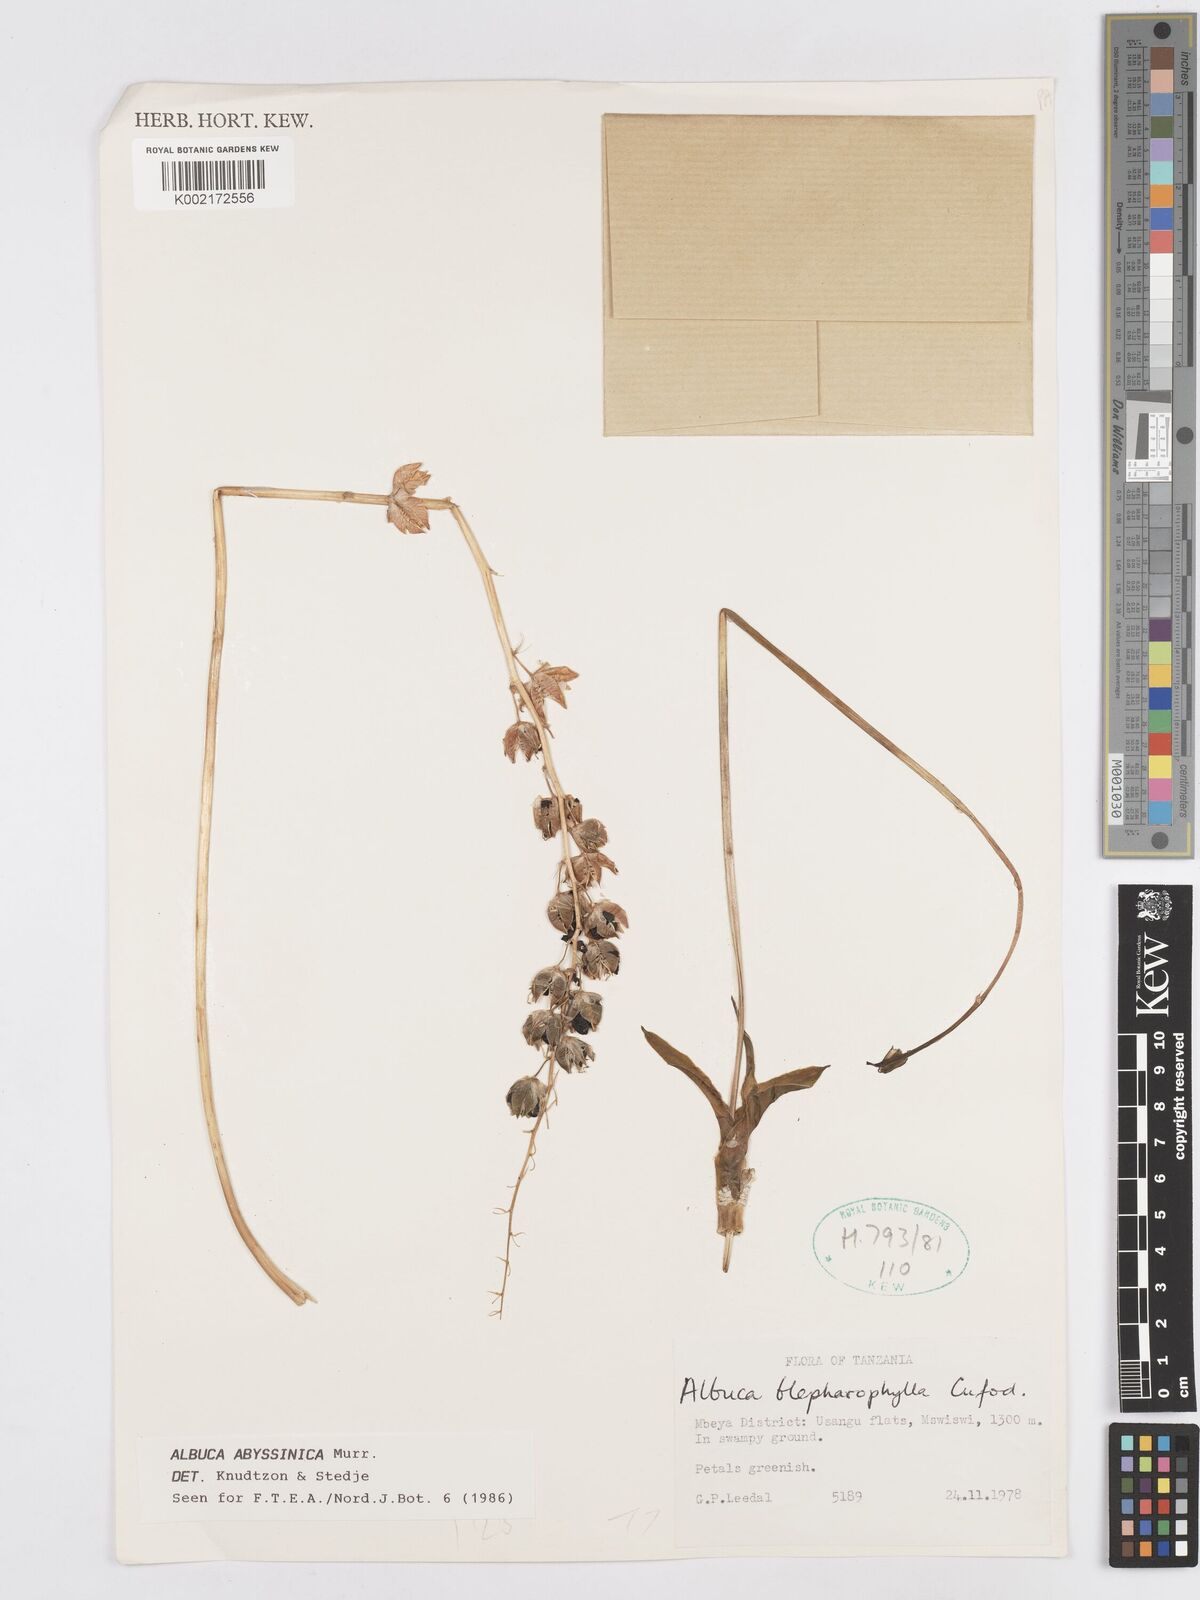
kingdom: Plantae
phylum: Tracheophyta
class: Liliopsida
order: Asparagales
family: Asparagaceae
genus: Albuca
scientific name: Albuca abyssinica
